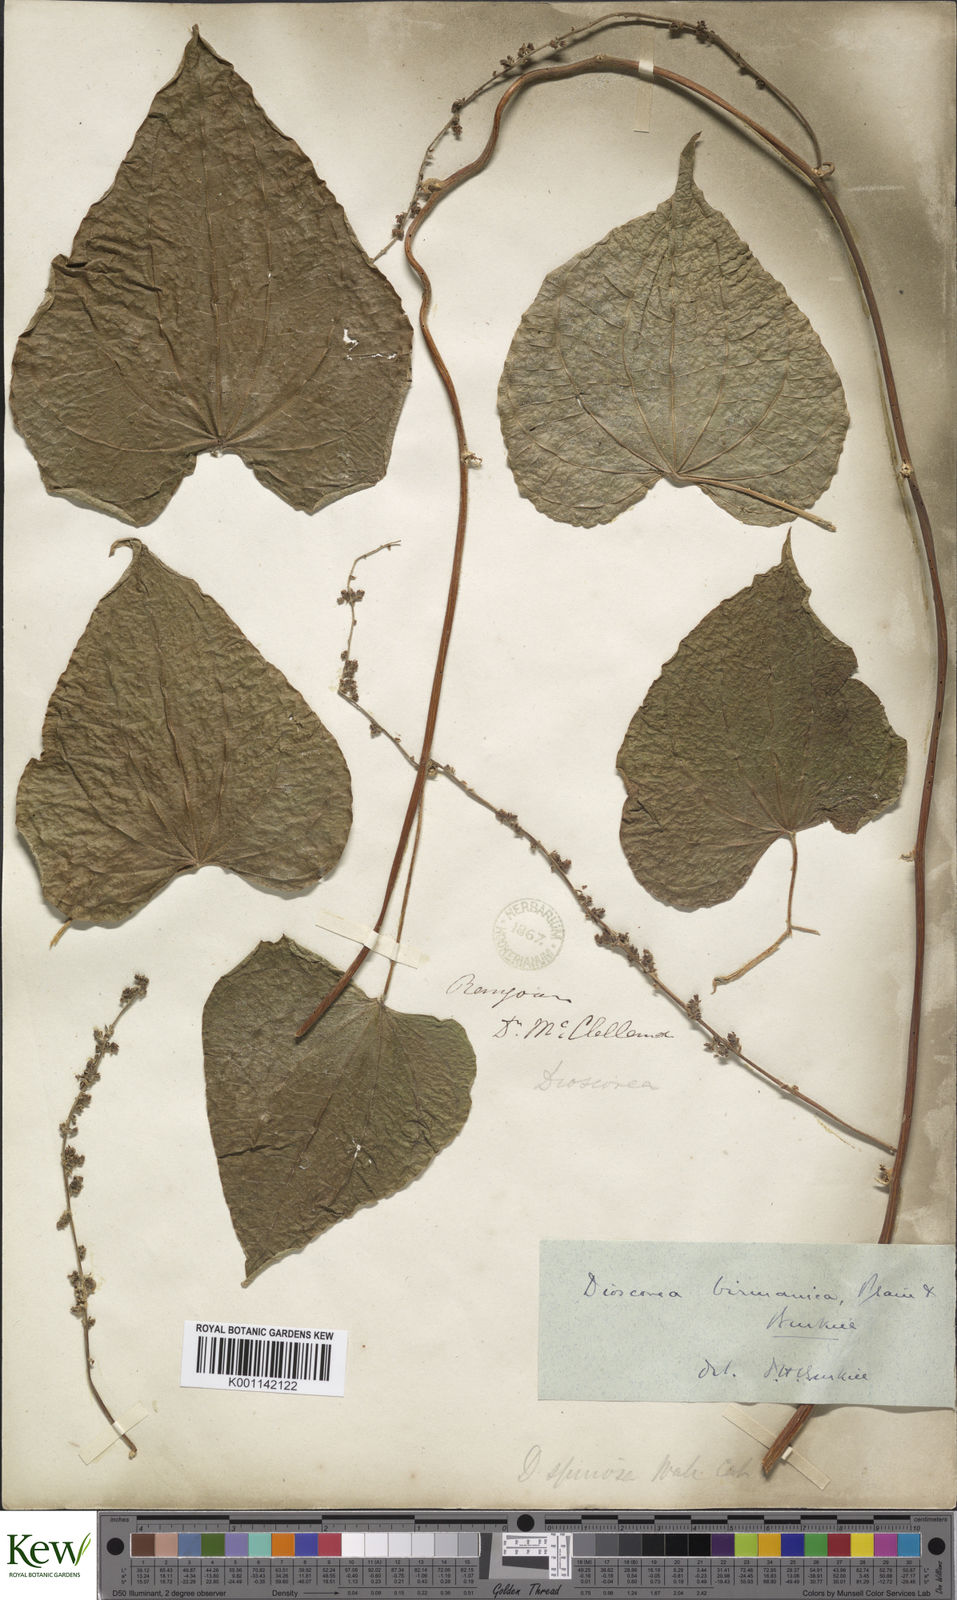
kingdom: Plantae
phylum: Tracheophyta
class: Liliopsida
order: Dioscoreales
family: Dioscoreaceae
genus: Dioscorea
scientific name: Dioscorea birmanica
